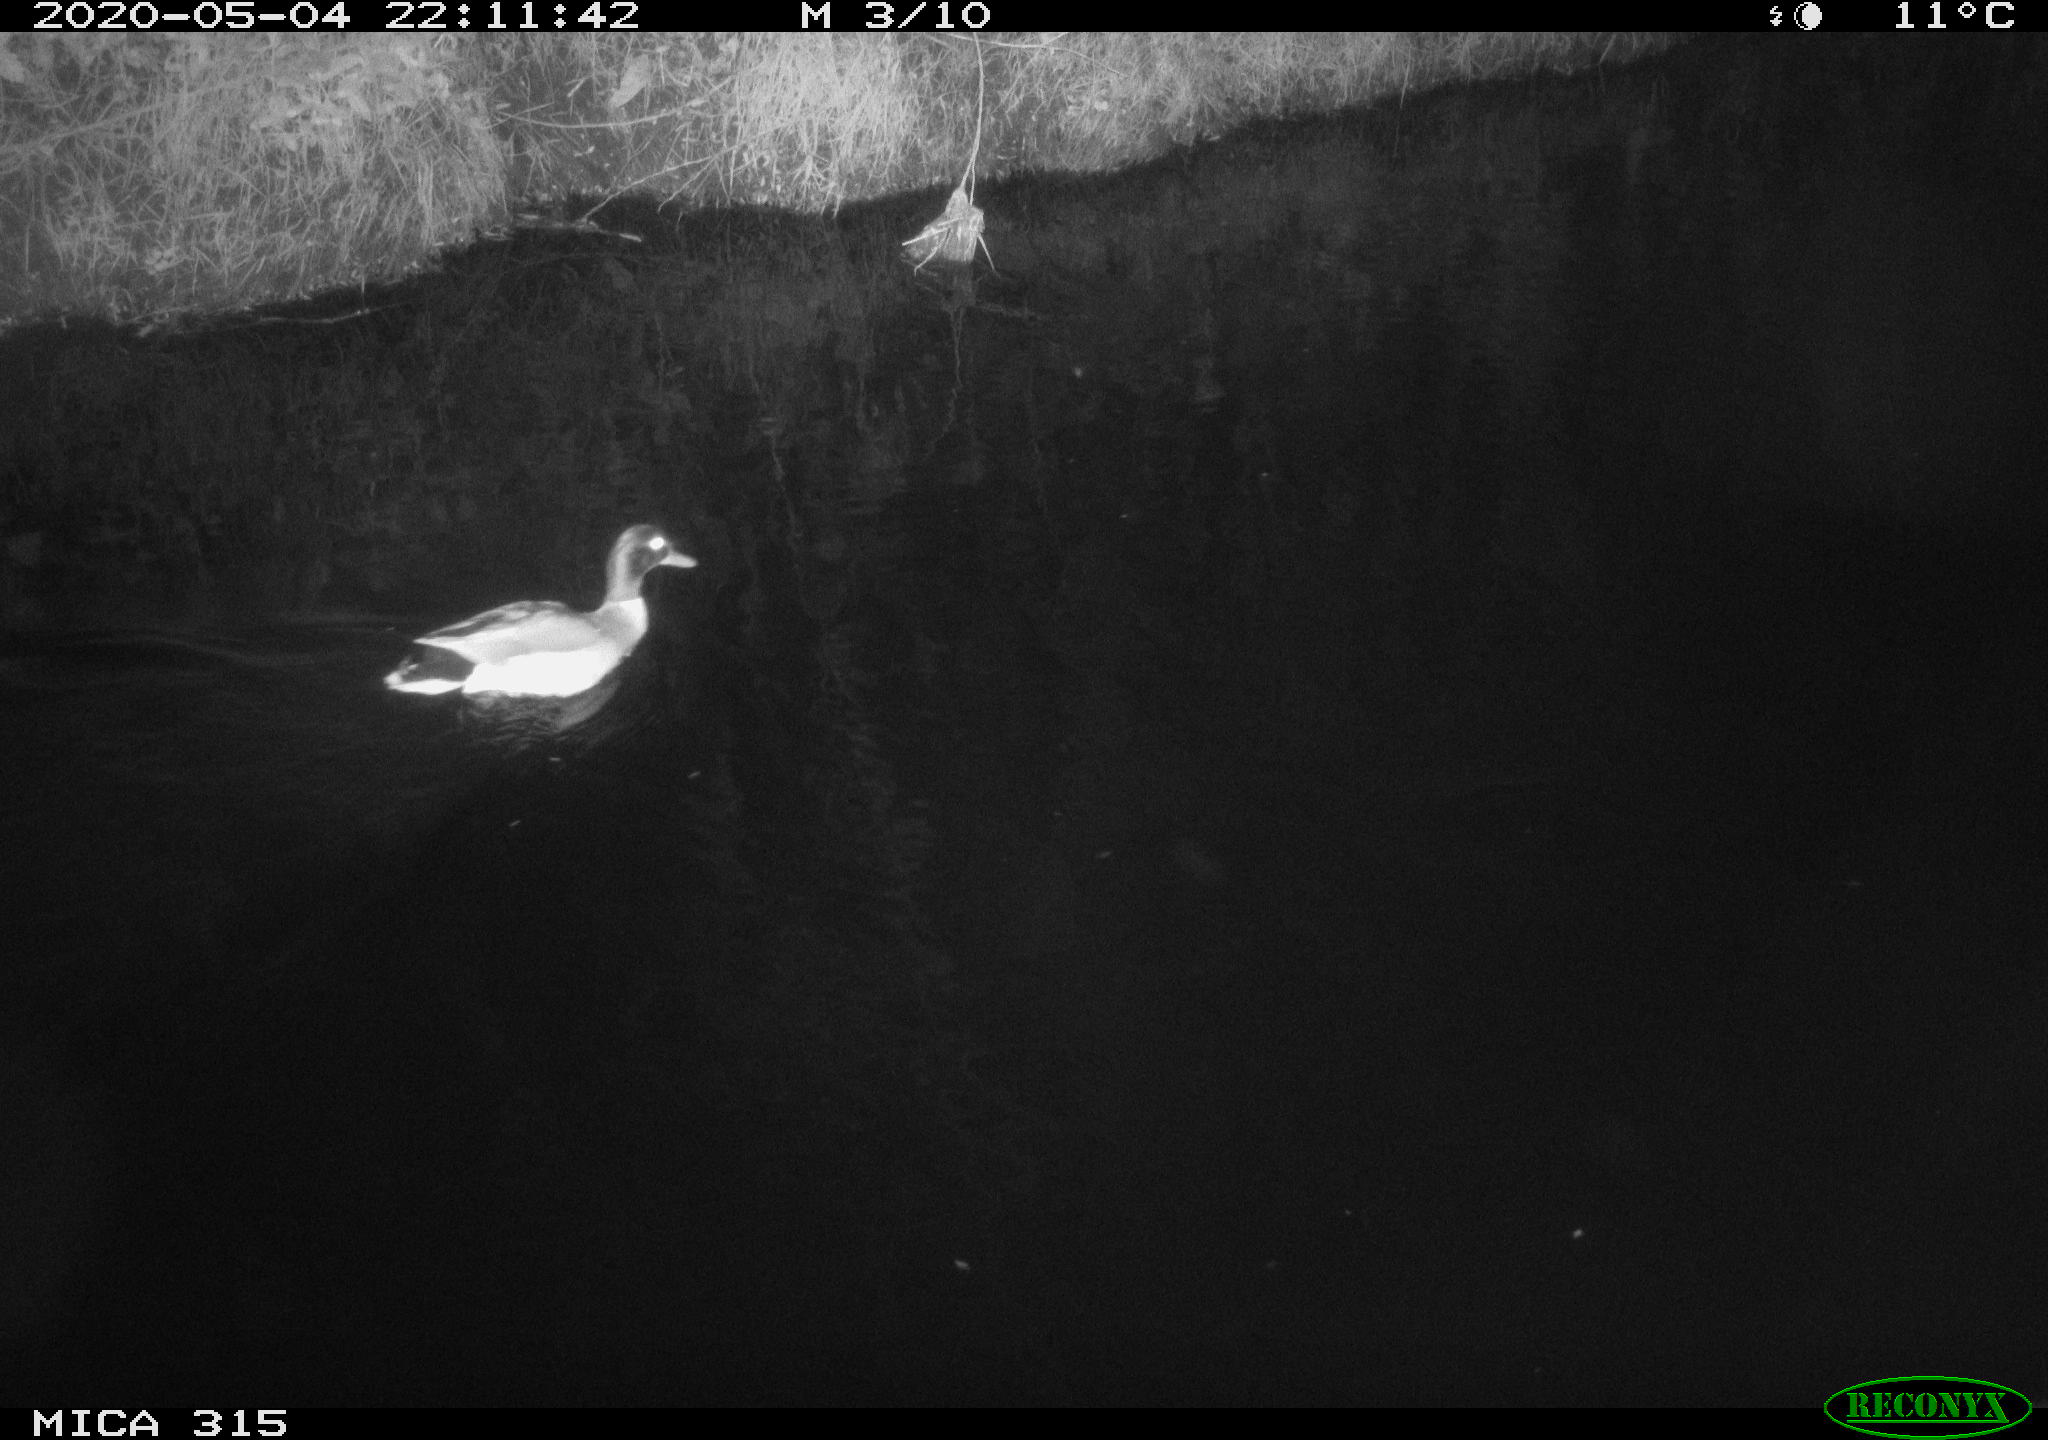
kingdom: Animalia
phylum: Chordata
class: Aves
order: Anseriformes
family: Anatidae
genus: Anas
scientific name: Anas platyrhynchos
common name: Mallard
